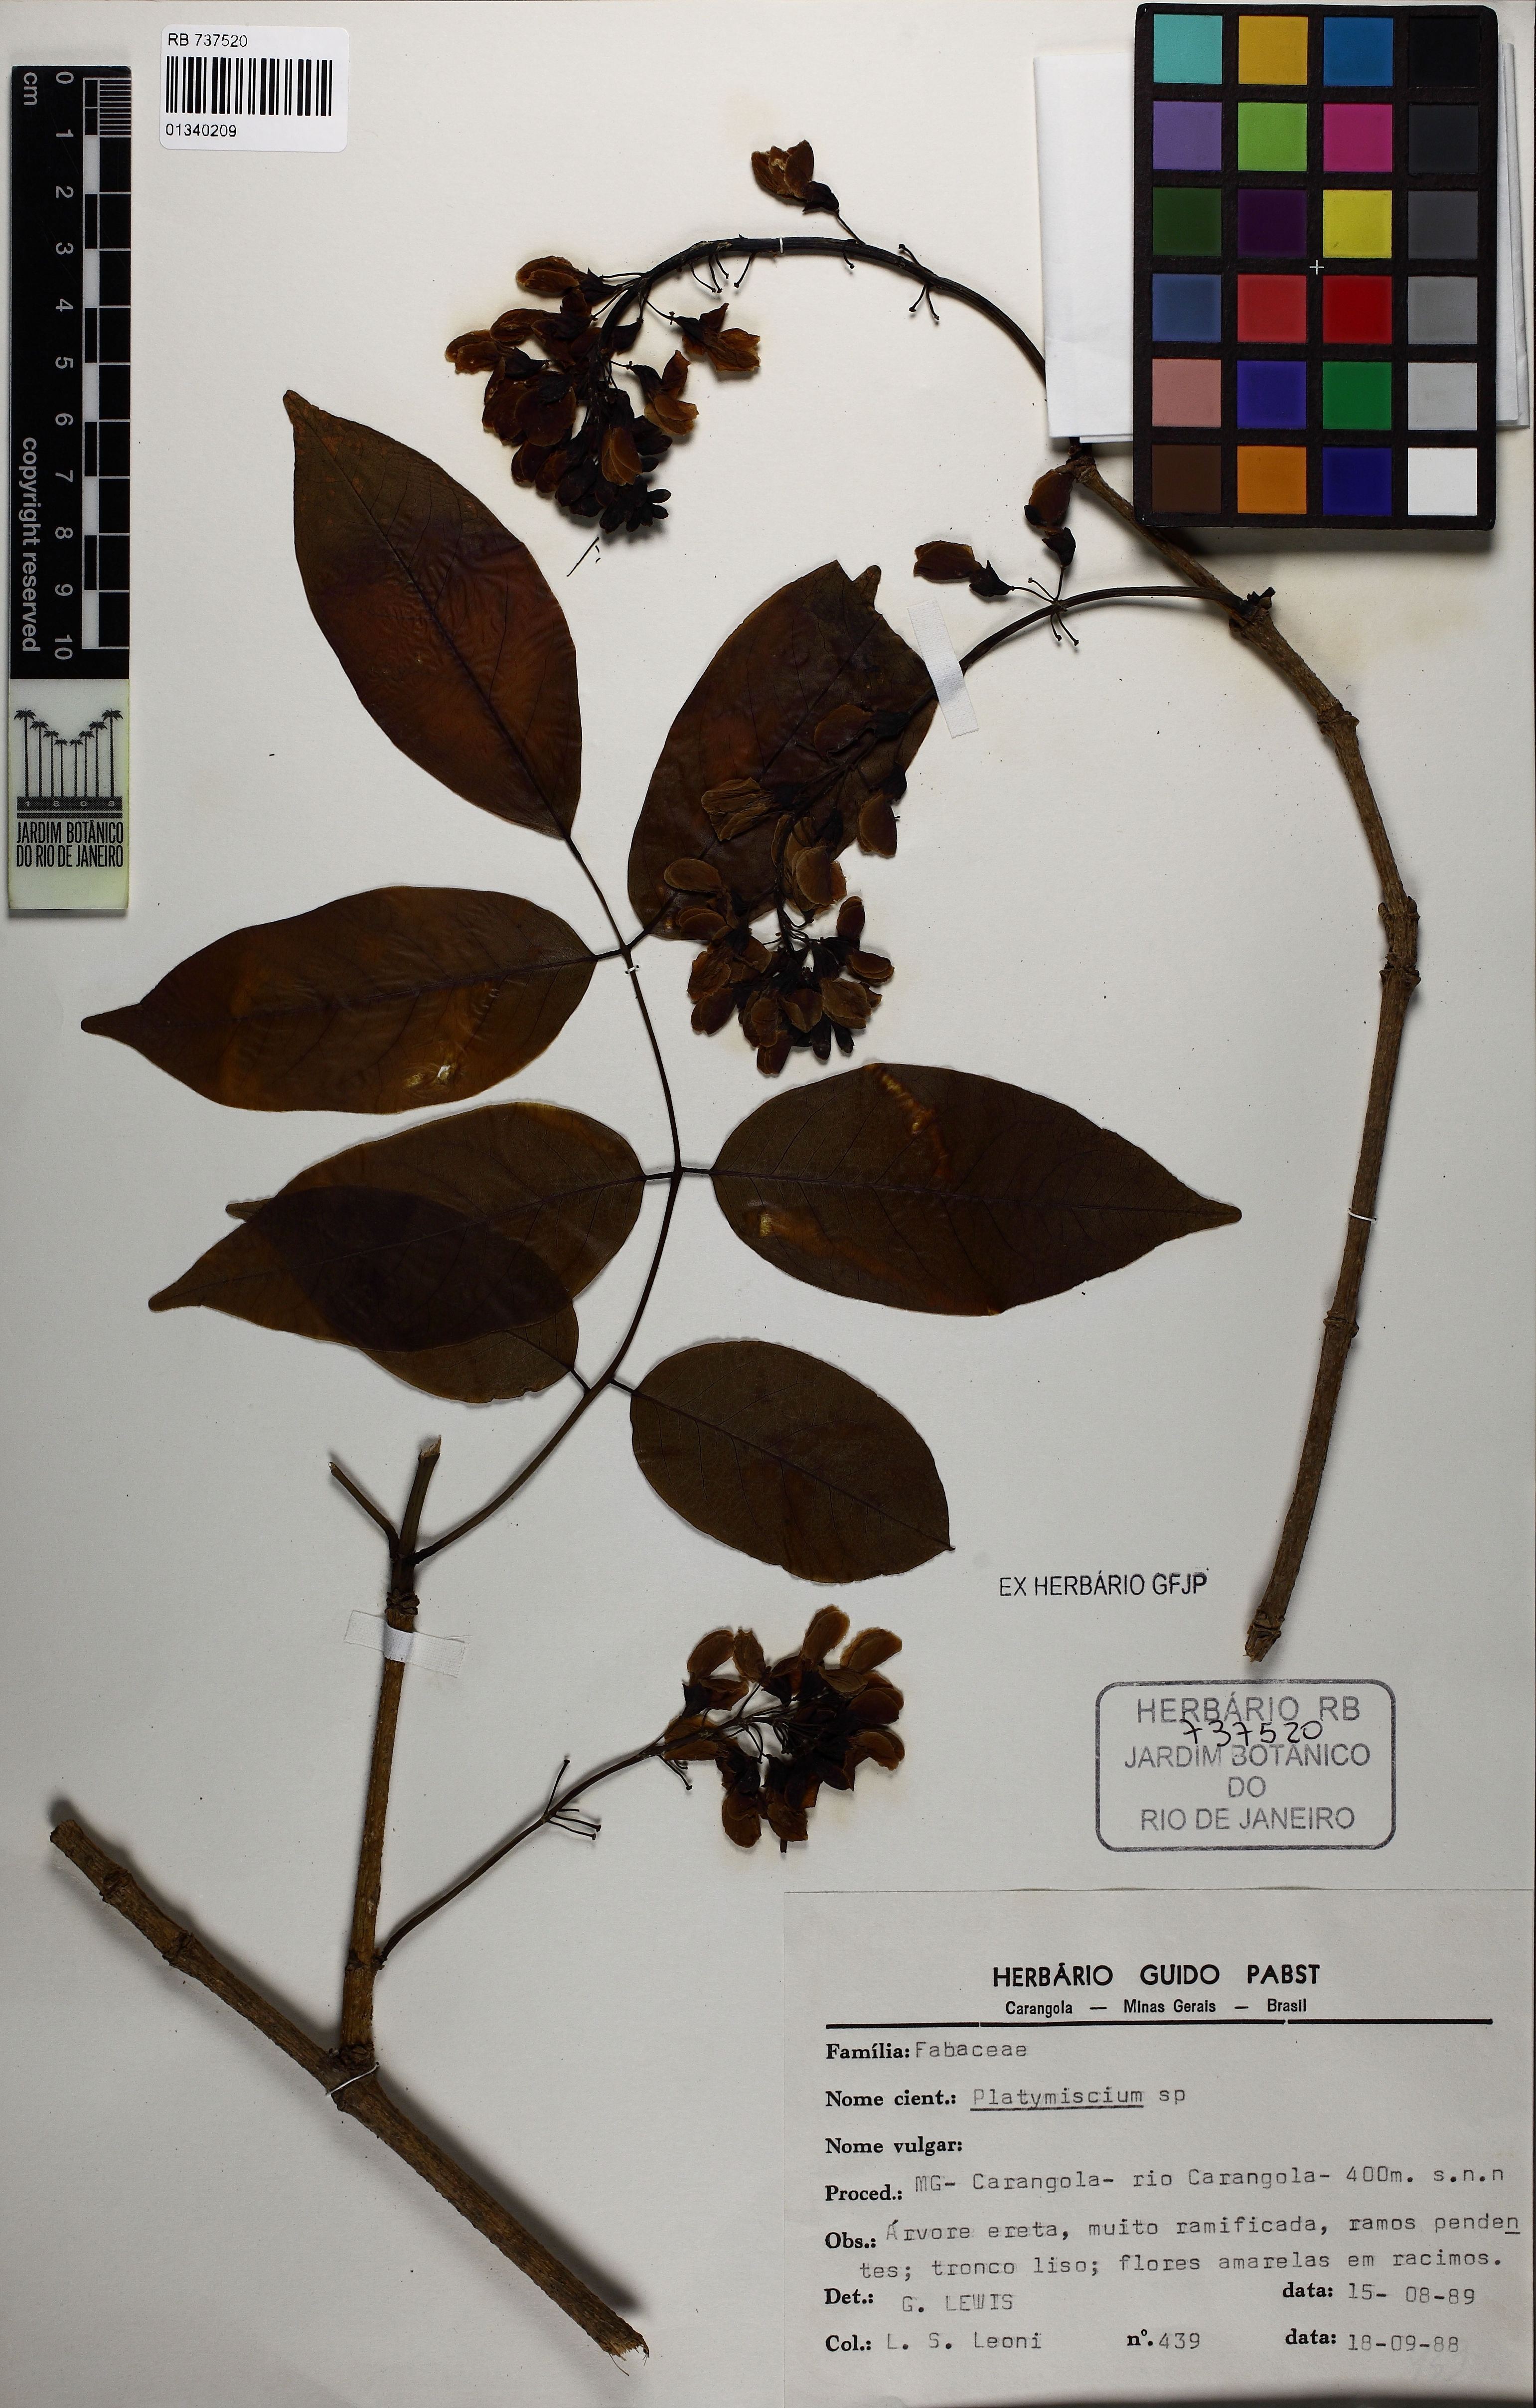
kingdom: Plantae
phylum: Tracheophyta
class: Magnoliopsida
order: Fabales
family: Fabaceae
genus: Platymiscium
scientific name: Platymiscium floribundum
